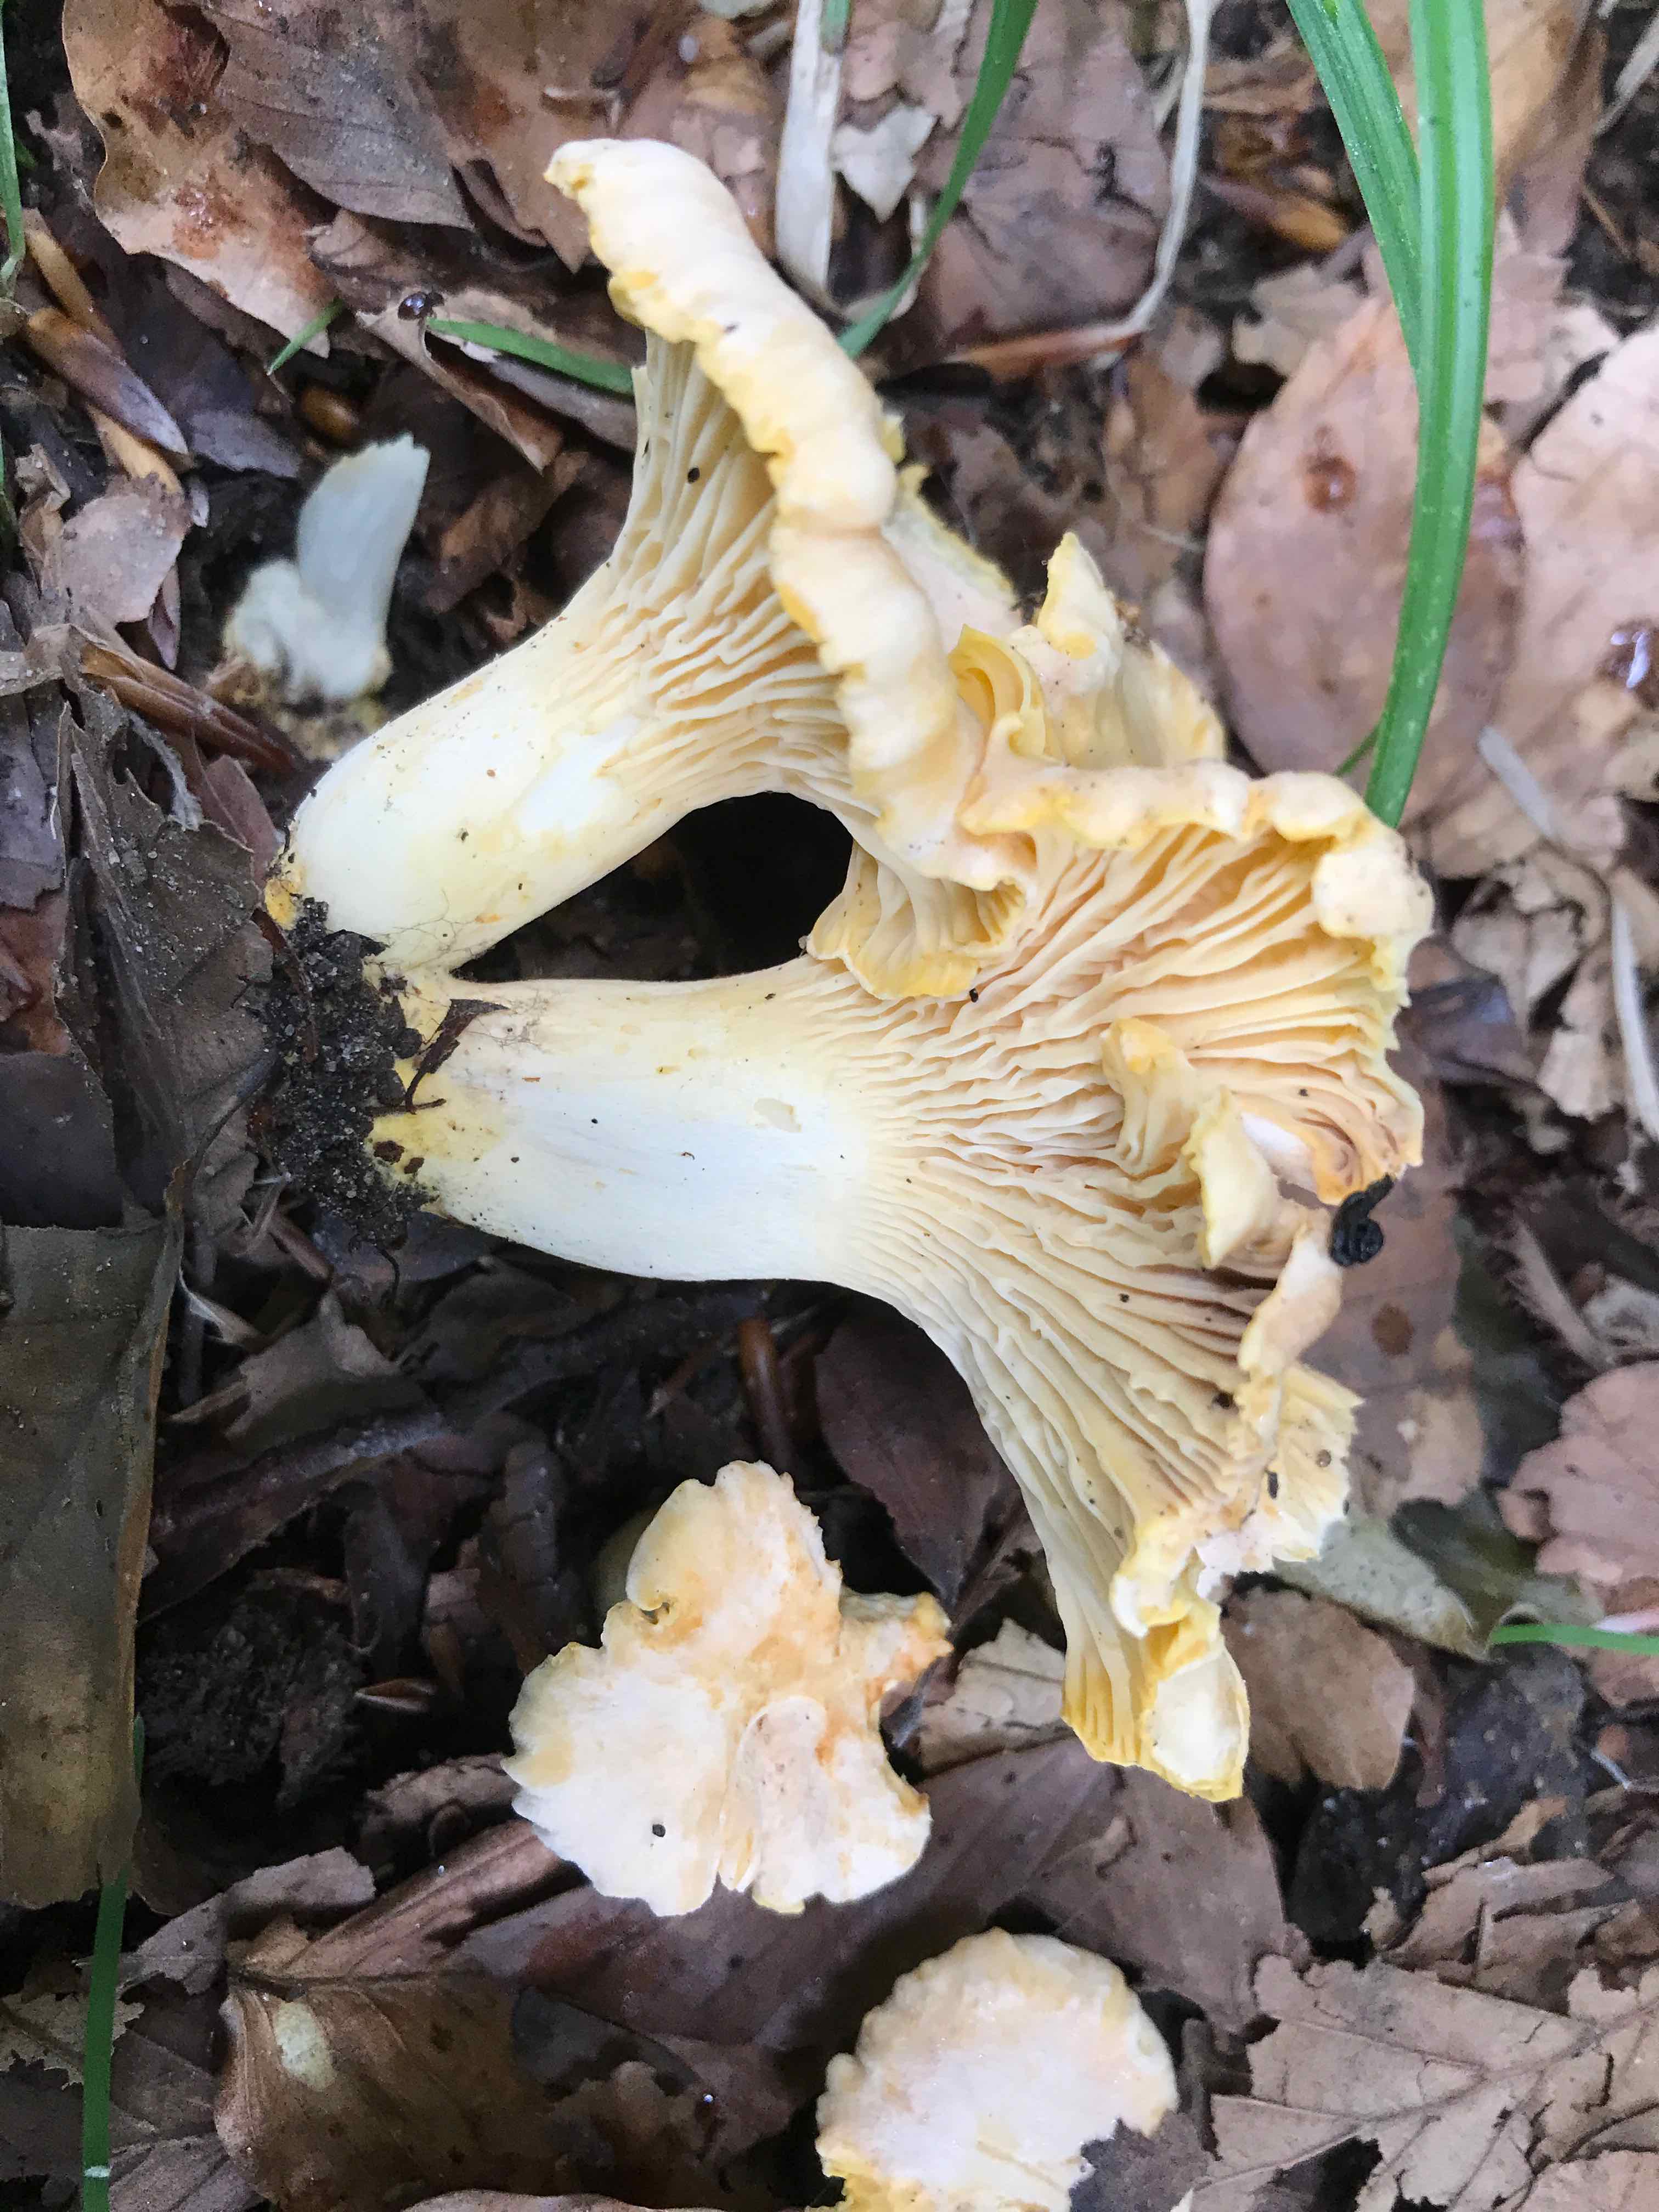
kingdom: Fungi
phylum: Basidiomycota
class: Agaricomycetes
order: Cantharellales
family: Hydnaceae
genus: Cantharellus
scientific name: Cantharellus pallens
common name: bleg kantarel
